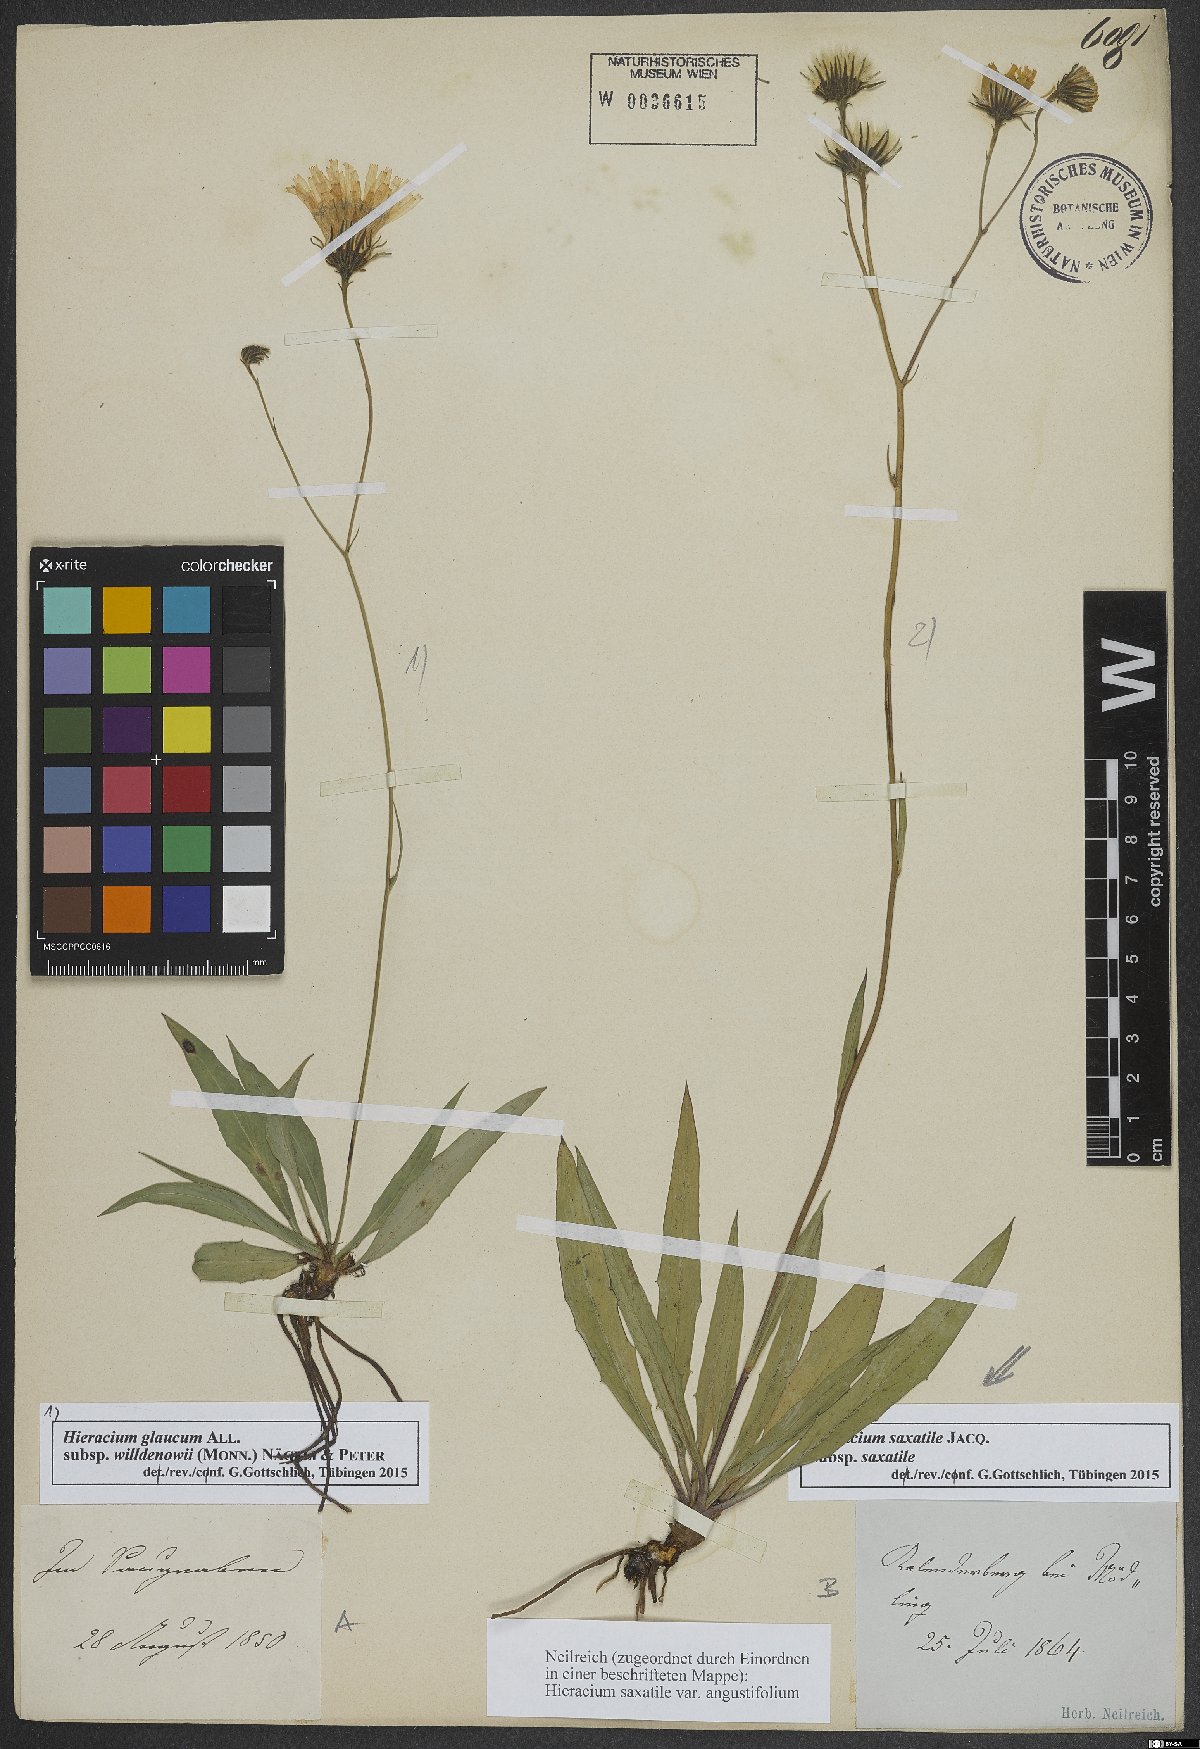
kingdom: Plantae
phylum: Tracheophyta
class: Magnoliopsida
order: Asterales
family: Asteraceae
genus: Hieracium
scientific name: Hieracium glaucum
